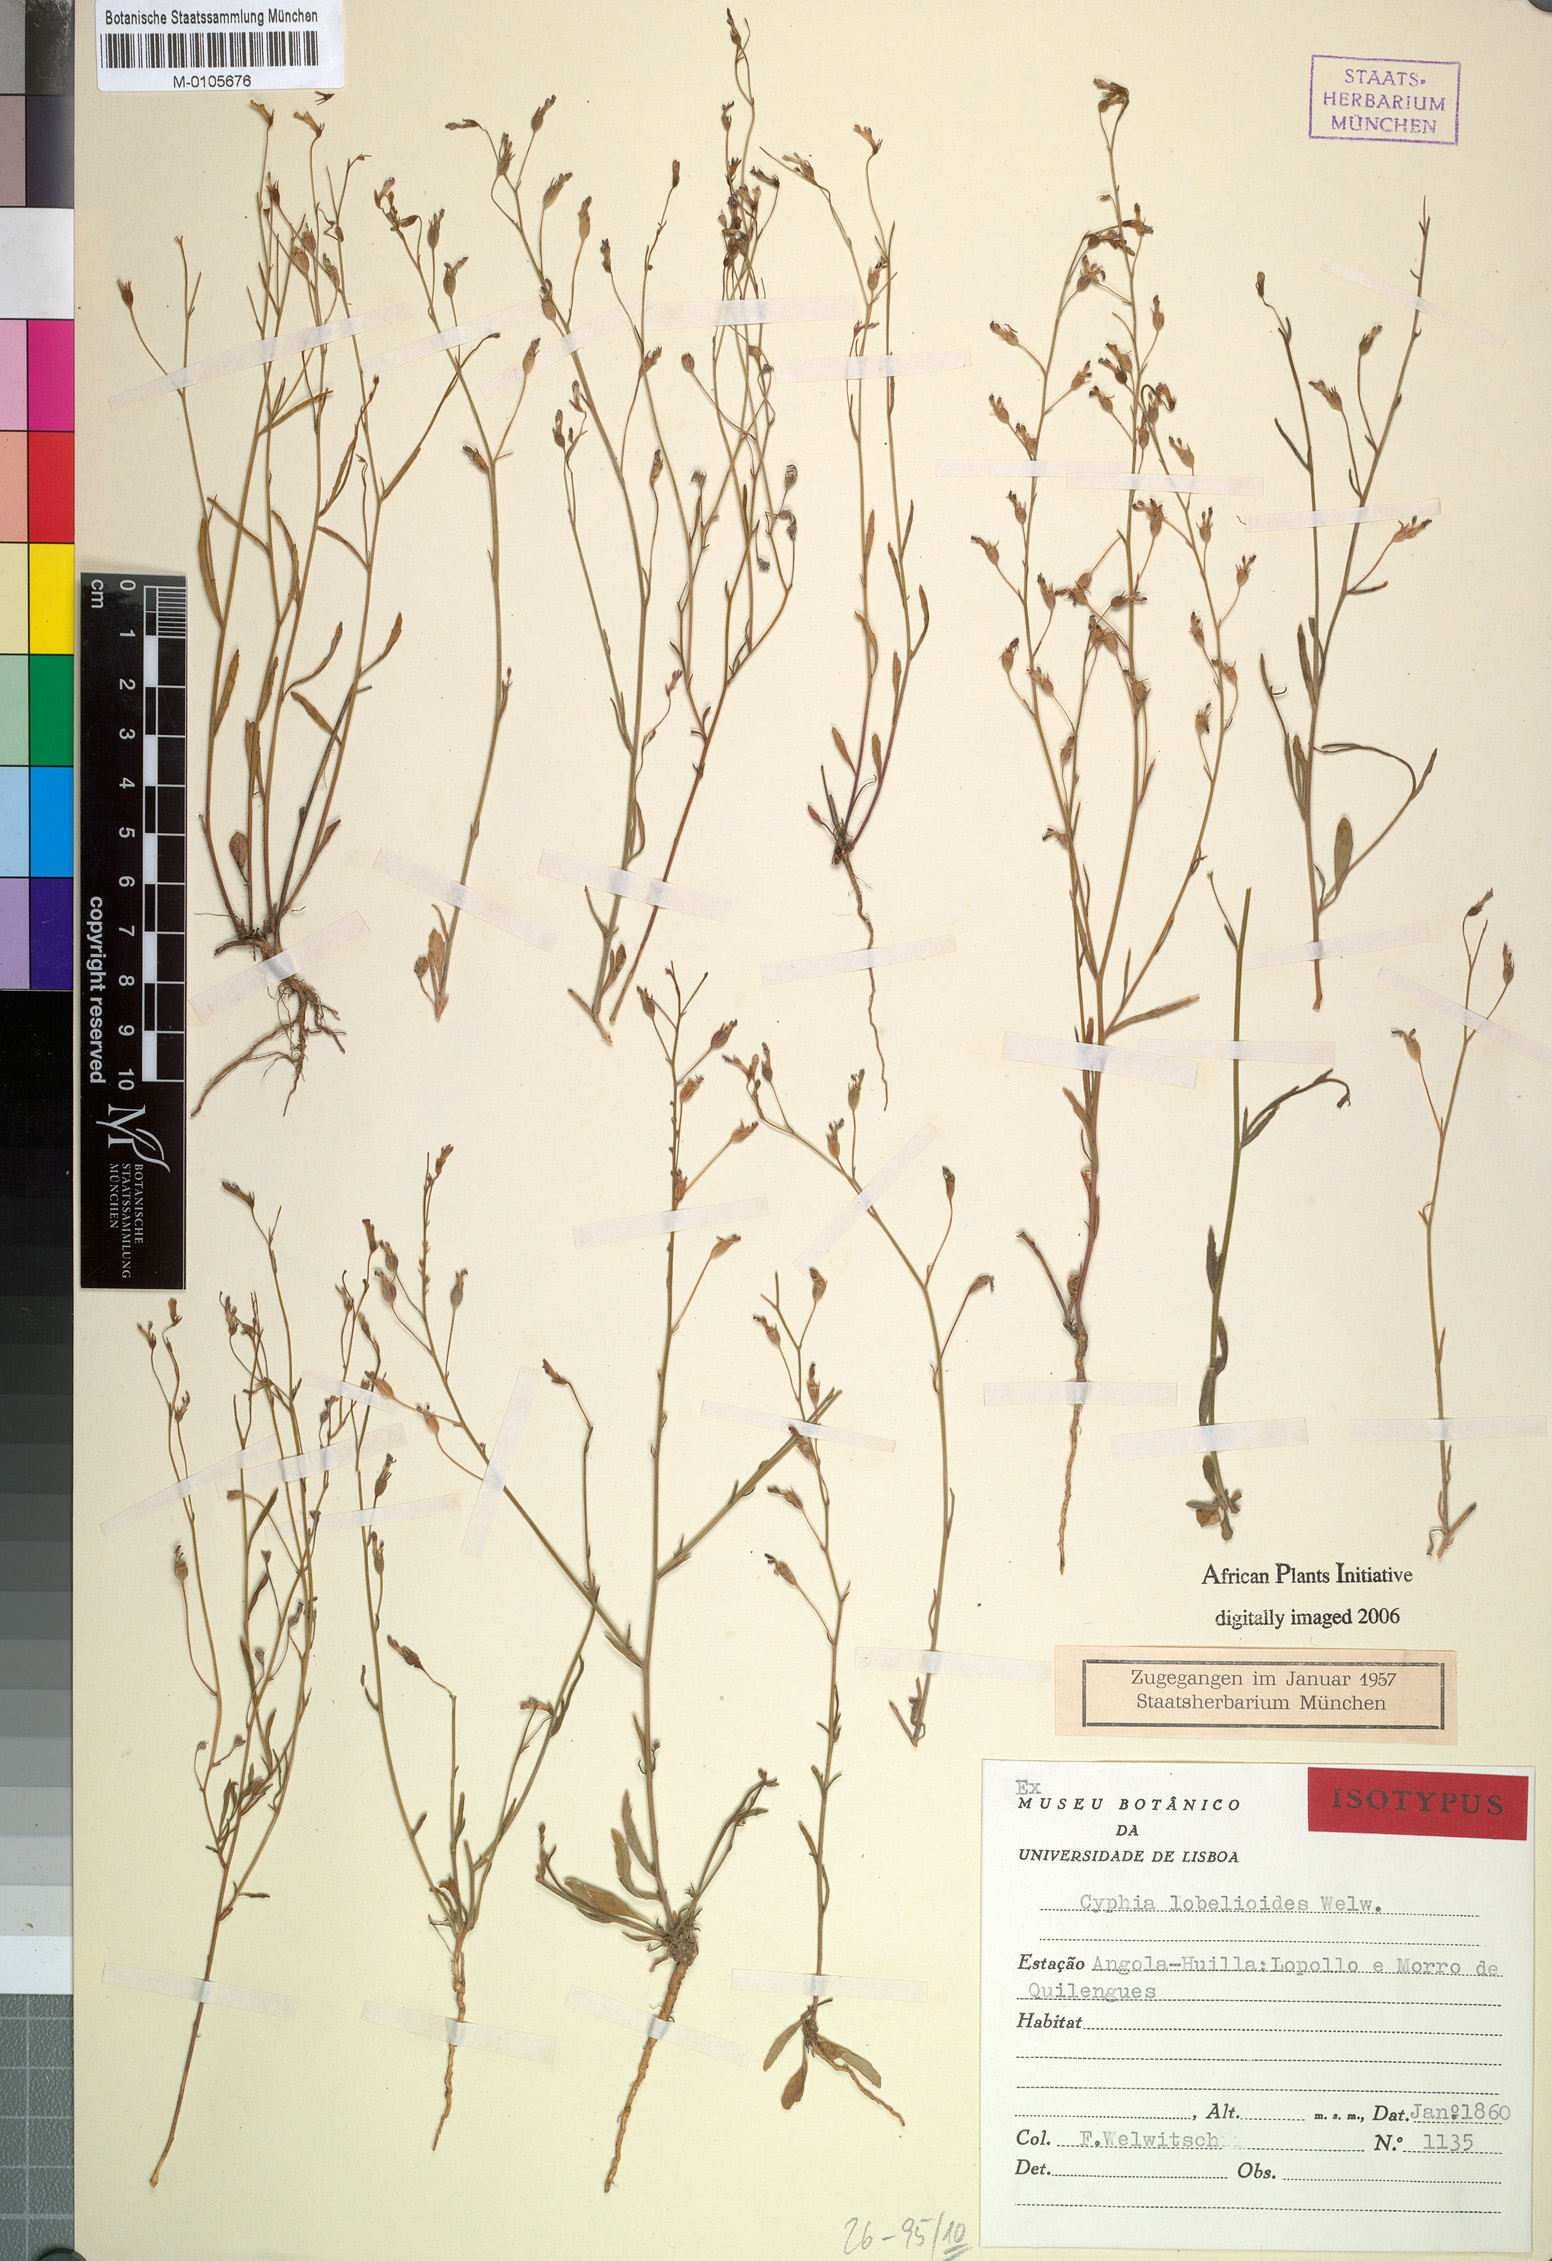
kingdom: Plantae
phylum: Tracheophyta
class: Magnoliopsida
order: Asterales
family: Campanulaceae
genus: Cyphia
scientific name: Cyphia stheno
